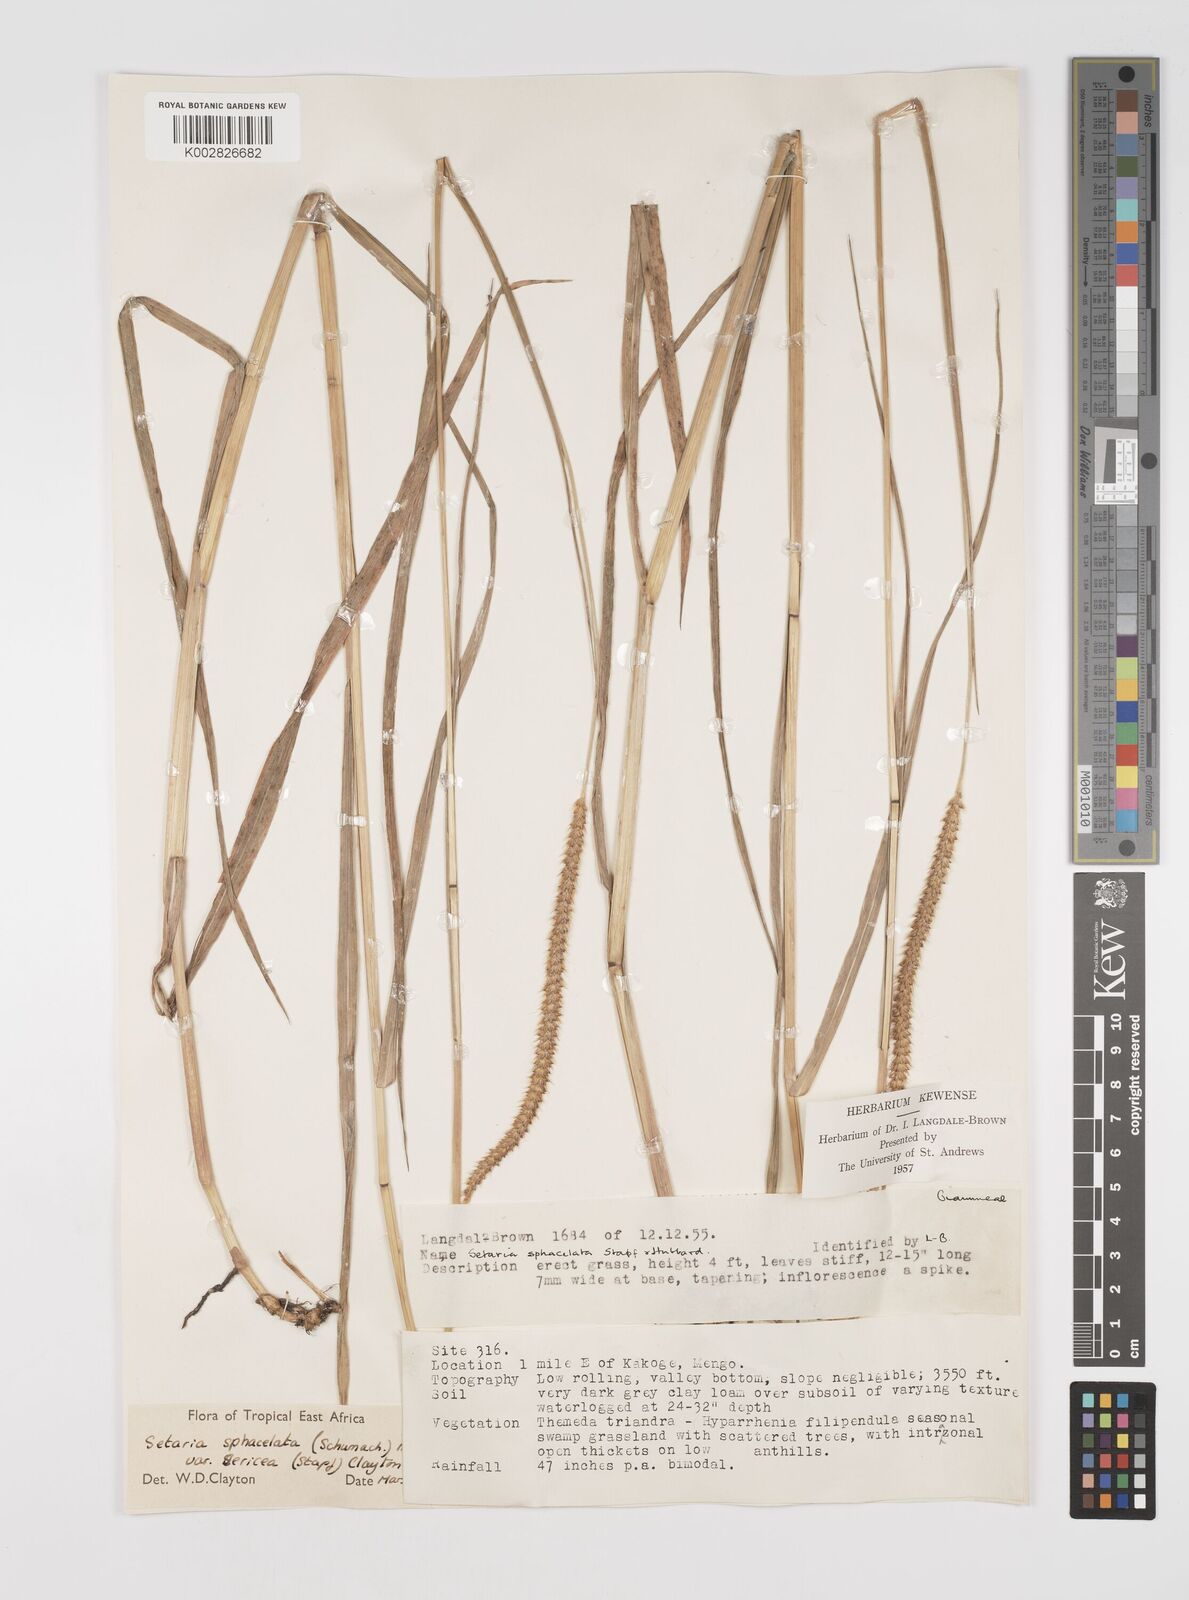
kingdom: Plantae
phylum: Tracheophyta
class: Liliopsida
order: Poales
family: Poaceae
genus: Setaria
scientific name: Setaria sphacelata
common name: African bristlegrass
